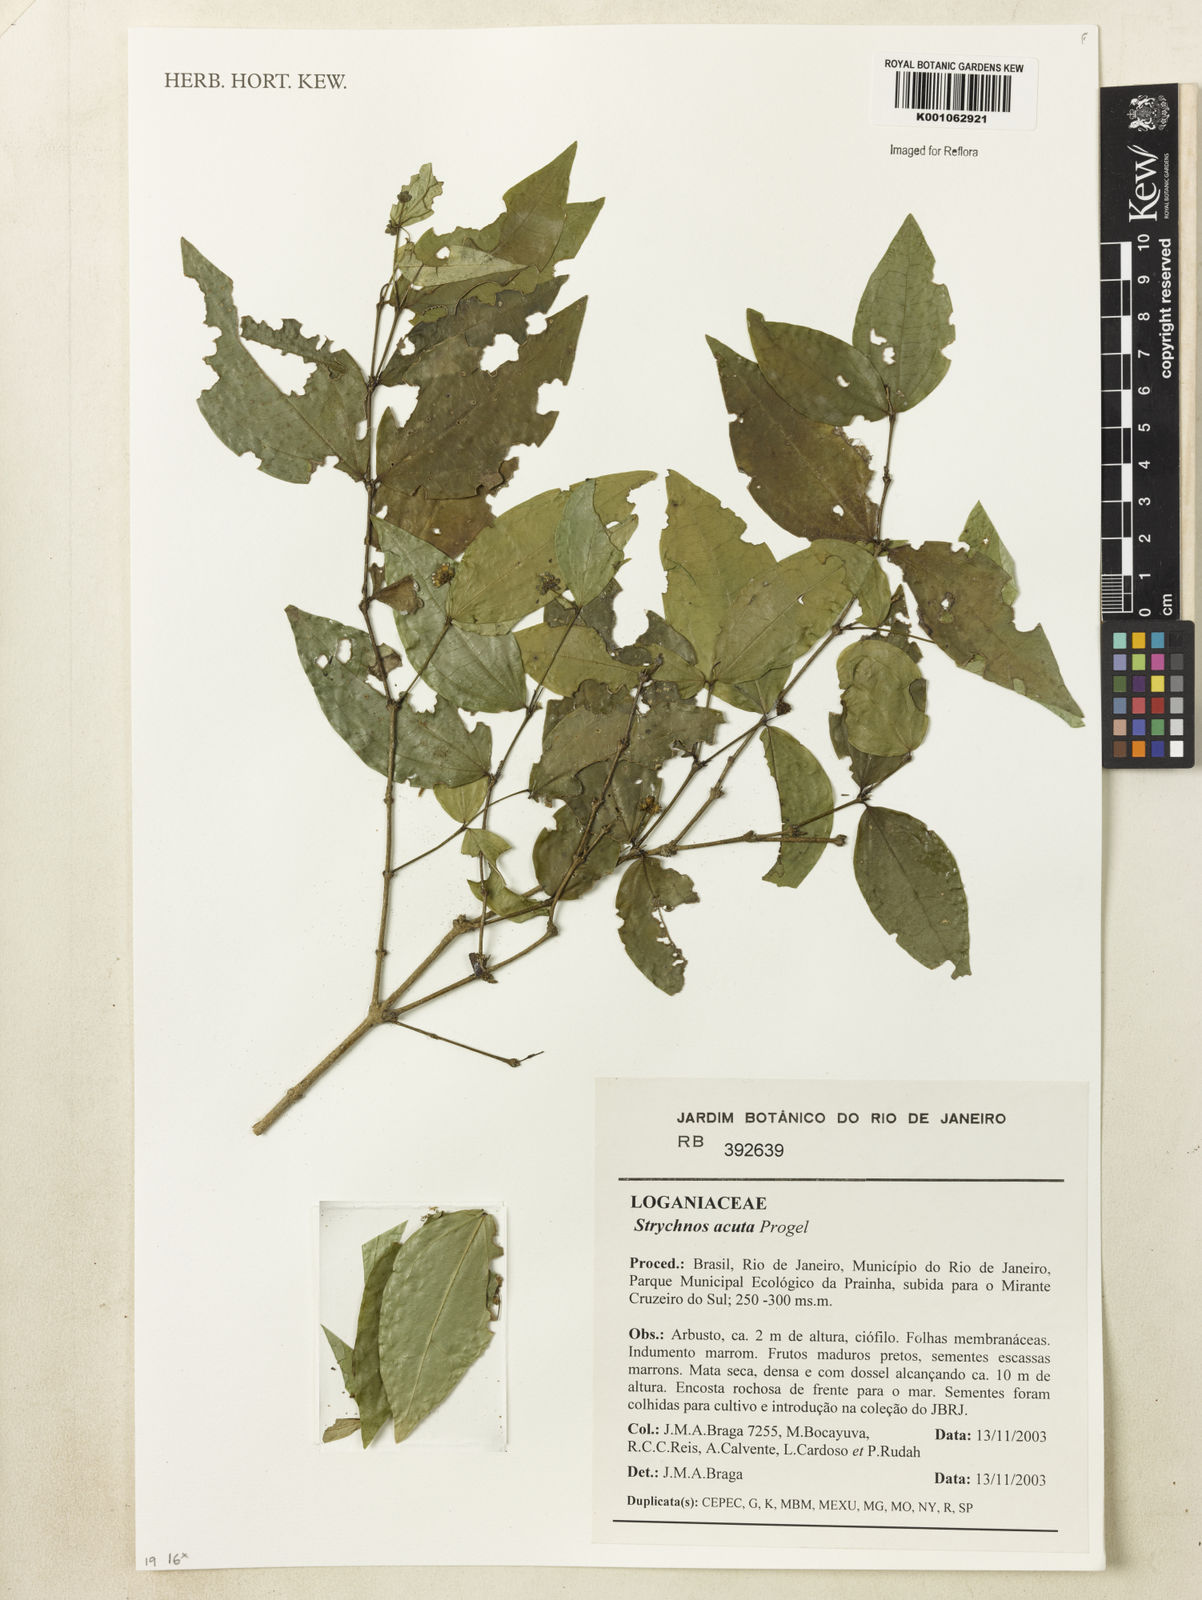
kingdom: Plantae
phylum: Tracheophyta
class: Magnoliopsida
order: Gentianales
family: Loganiaceae
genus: Strychnos
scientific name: Strychnos acuta
